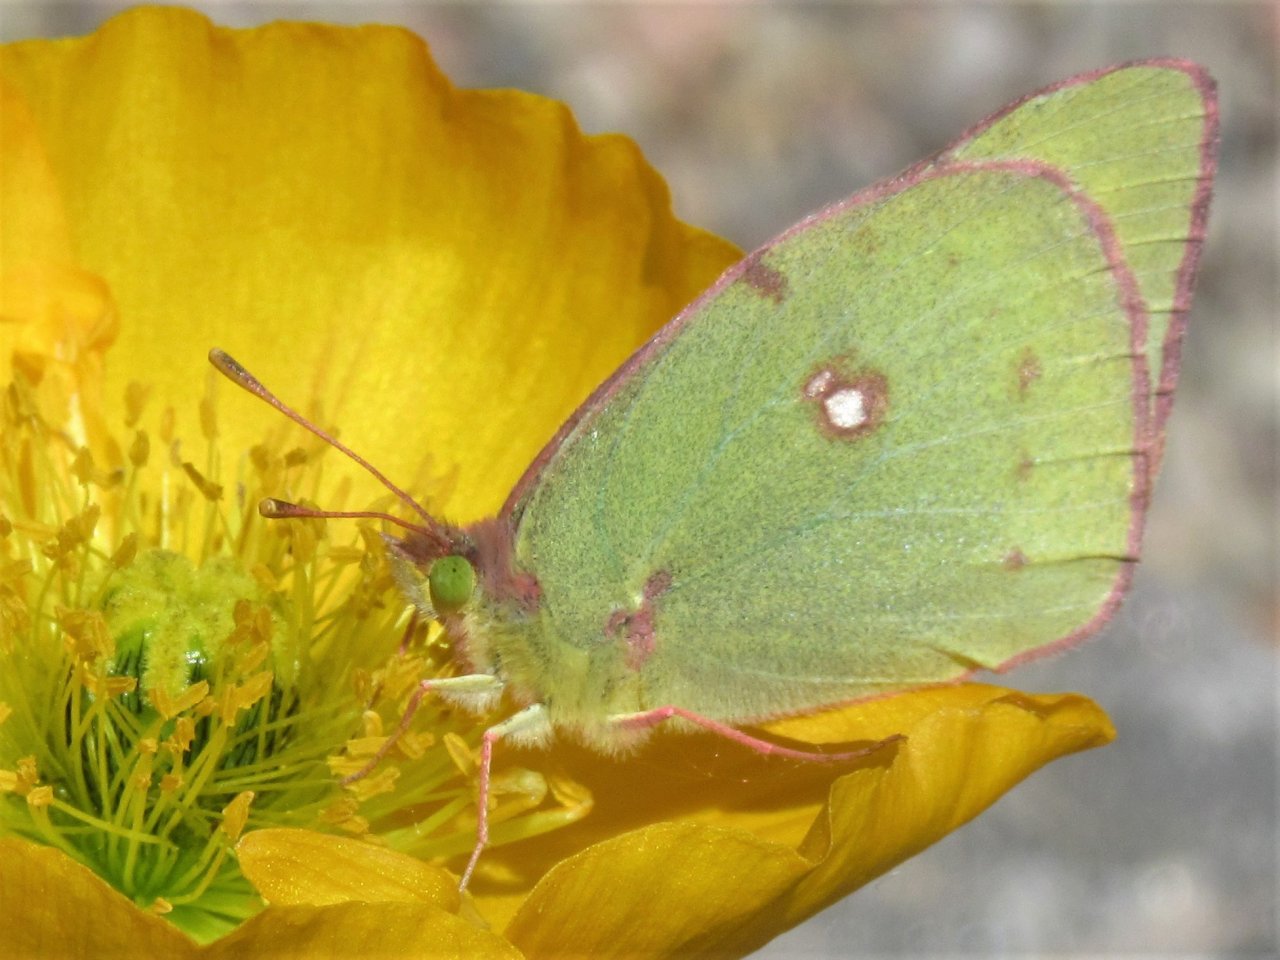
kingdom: Animalia
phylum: Arthropoda
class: Insecta
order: Lepidoptera
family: Pieridae
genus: Colias
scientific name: Colias philodice
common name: Clouded Sulphur
